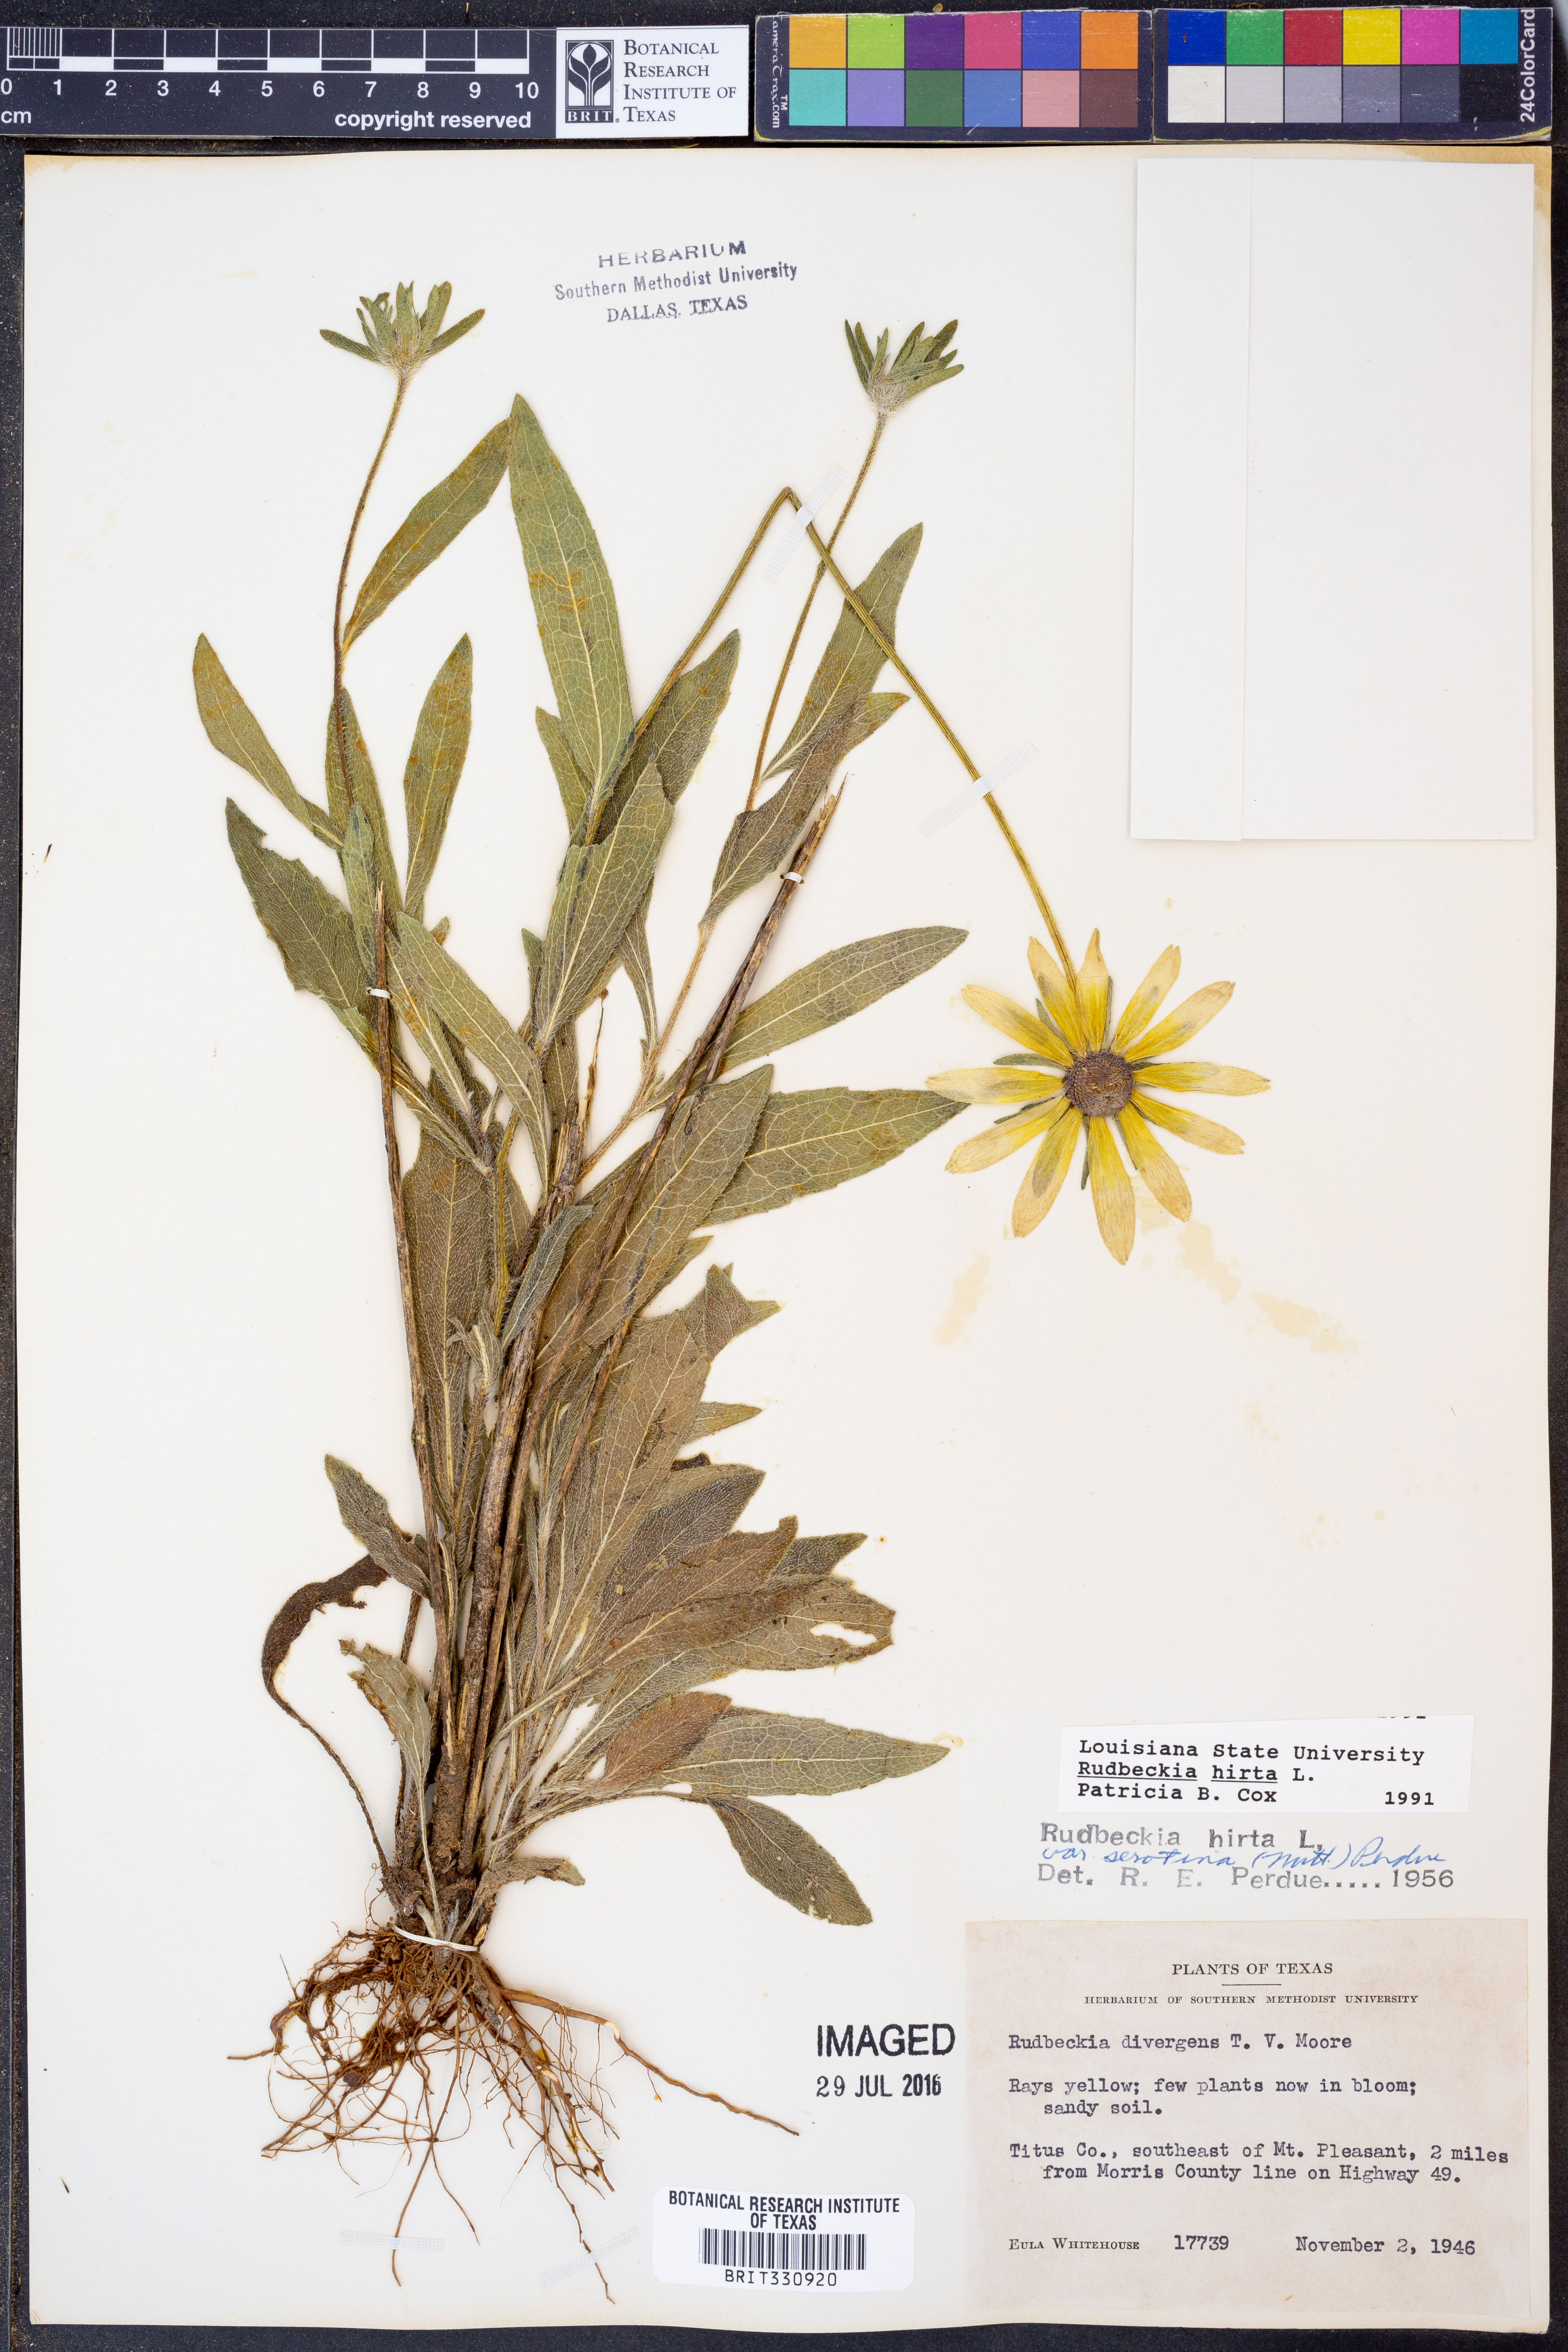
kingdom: Plantae
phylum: Tracheophyta
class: Magnoliopsida
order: Asterales
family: Asteraceae
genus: Rudbeckia
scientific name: Rudbeckia hirta
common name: Black-eyed-susan
